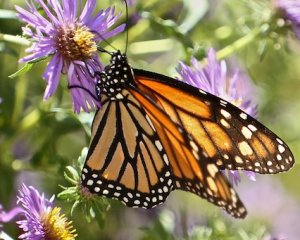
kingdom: Animalia
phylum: Arthropoda
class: Insecta
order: Lepidoptera
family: Nymphalidae
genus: Danaus
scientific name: Danaus plexippus
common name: Monarch
